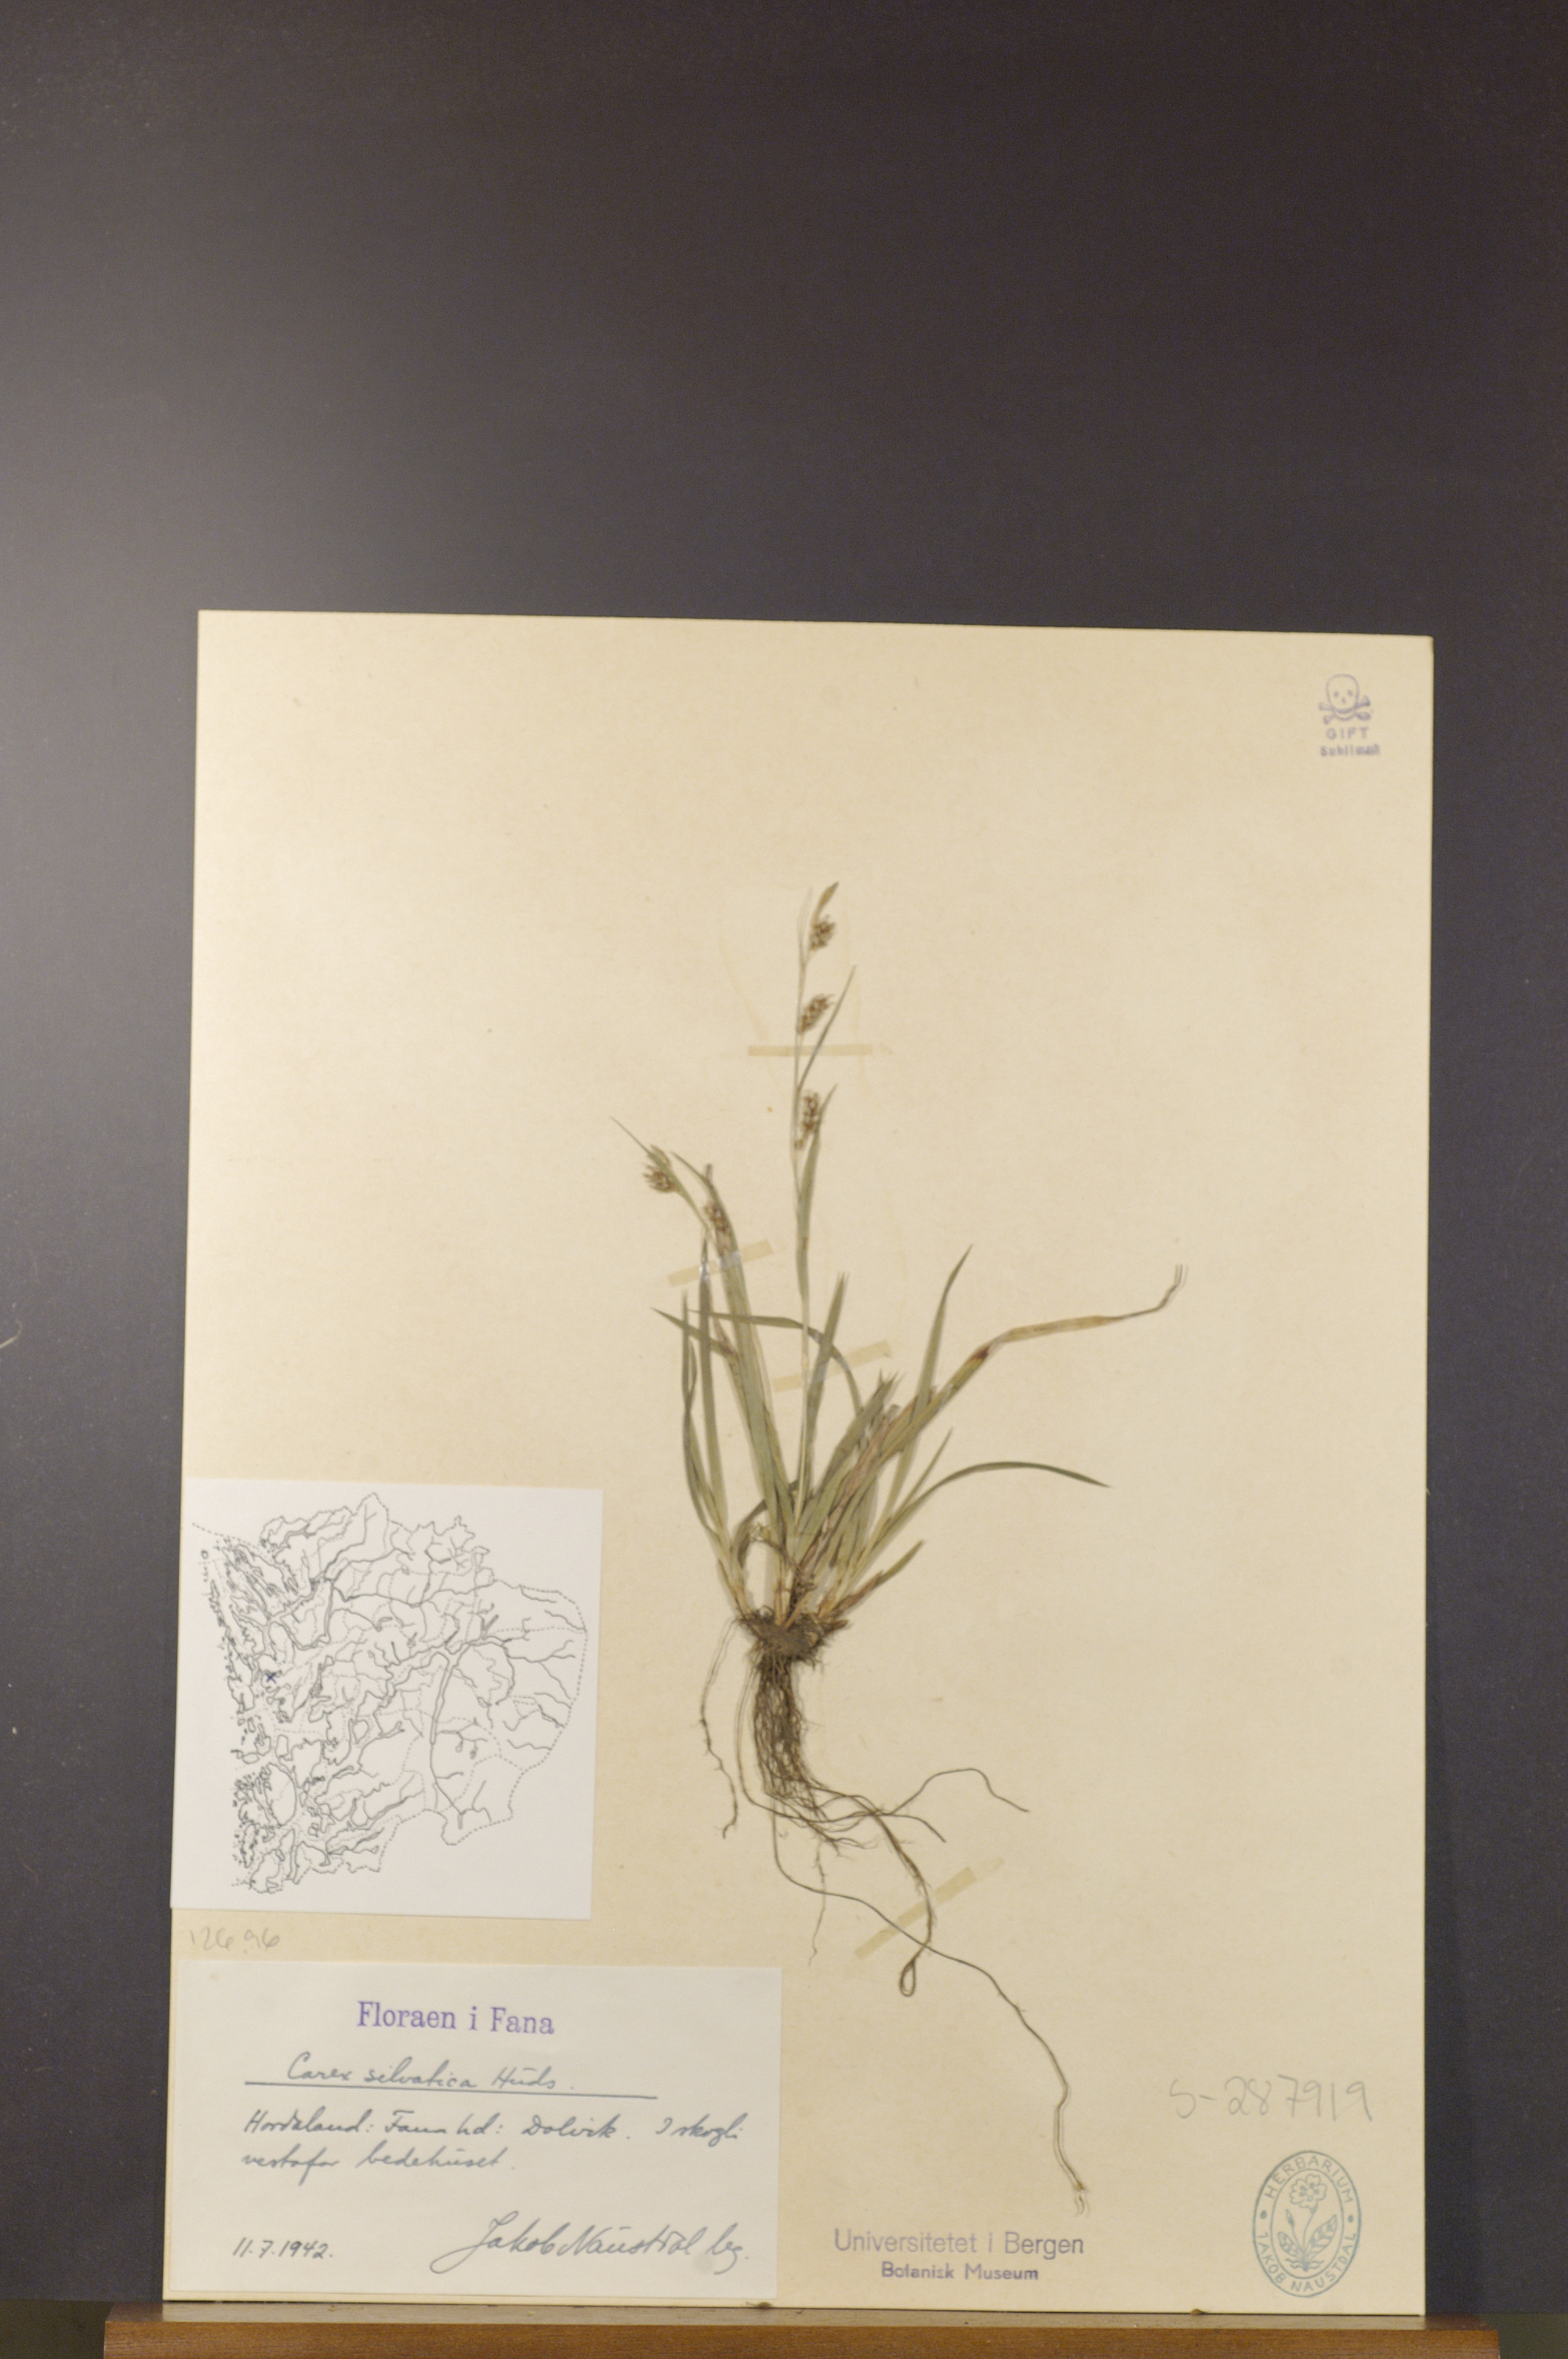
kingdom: Plantae
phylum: Tracheophyta
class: Liliopsida
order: Poales
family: Cyperaceae
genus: Carex
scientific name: Carex sylvatica
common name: Wood-sedge
